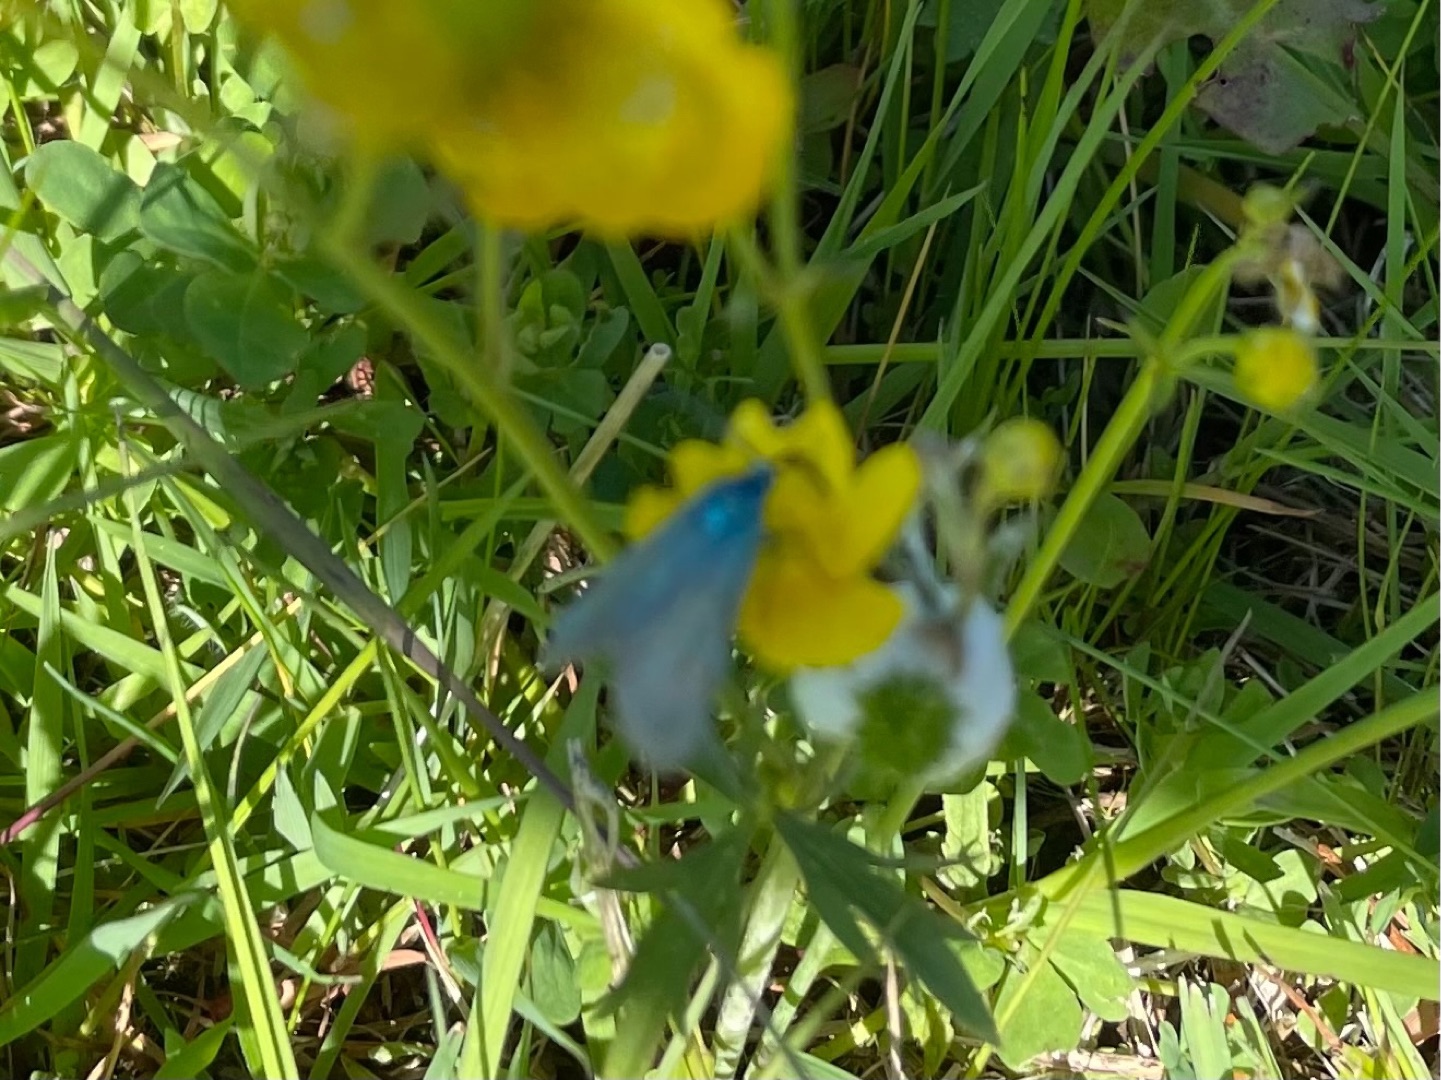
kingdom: Animalia
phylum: Arthropoda
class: Insecta
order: Lepidoptera
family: Zygaenidae
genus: Adscita
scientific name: Adscita statices
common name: Metalvinge
